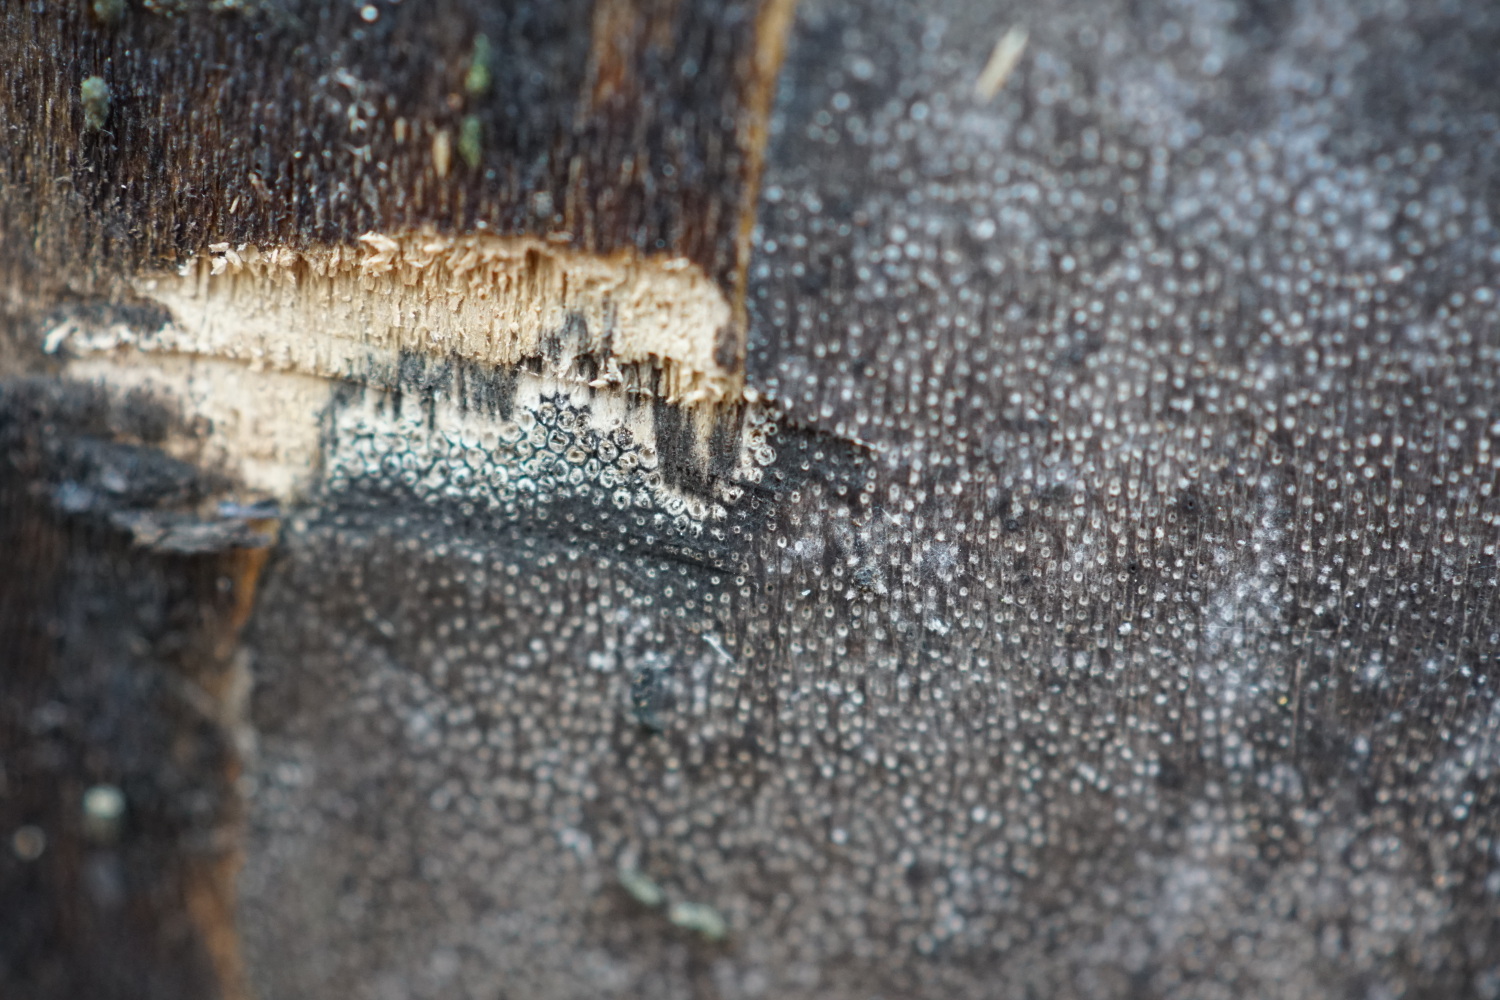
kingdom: Fungi
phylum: Ascomycota
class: Sordariomycetes
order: Xylariales
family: Diatrypaceae
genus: Eutypa
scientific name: Eutypa maura
